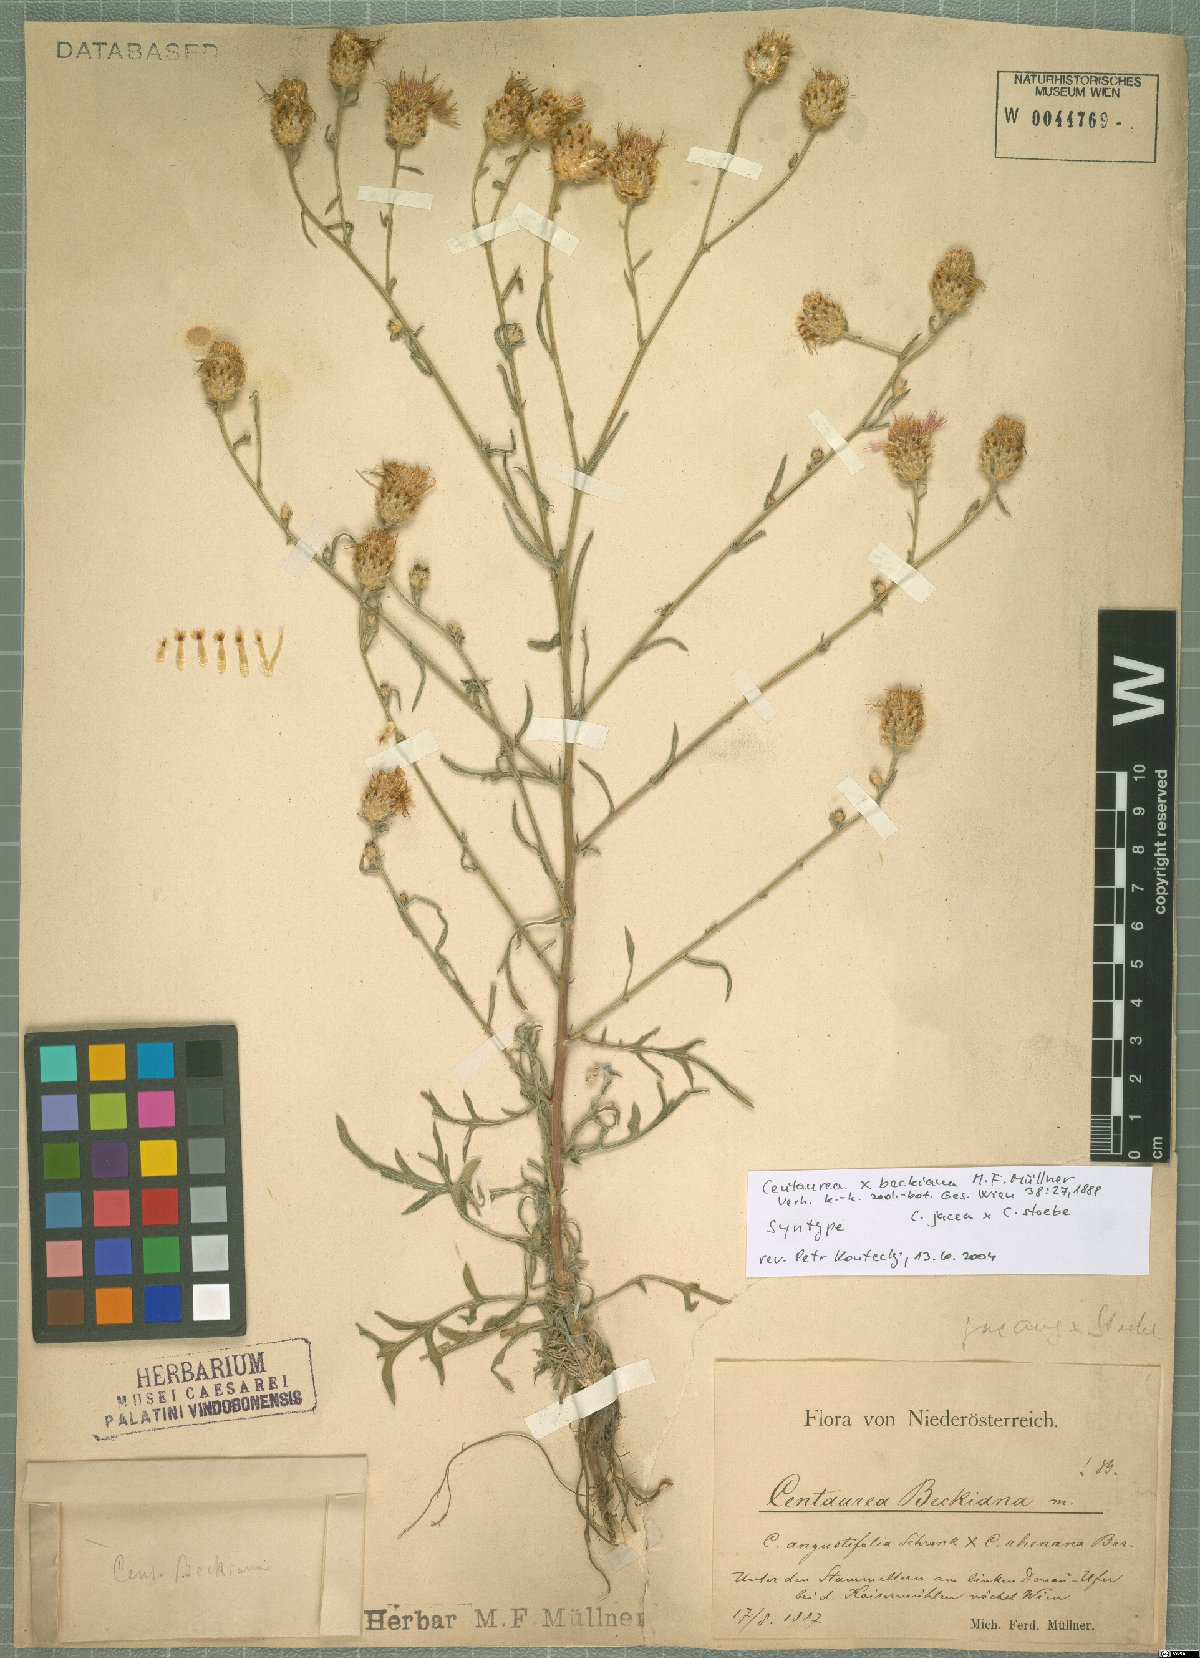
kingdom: Plantae
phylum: Tracheophyta
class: Magnoliopsida
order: Asterales
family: Asteraceae
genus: Centaurea
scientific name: Centaurea beckiana
